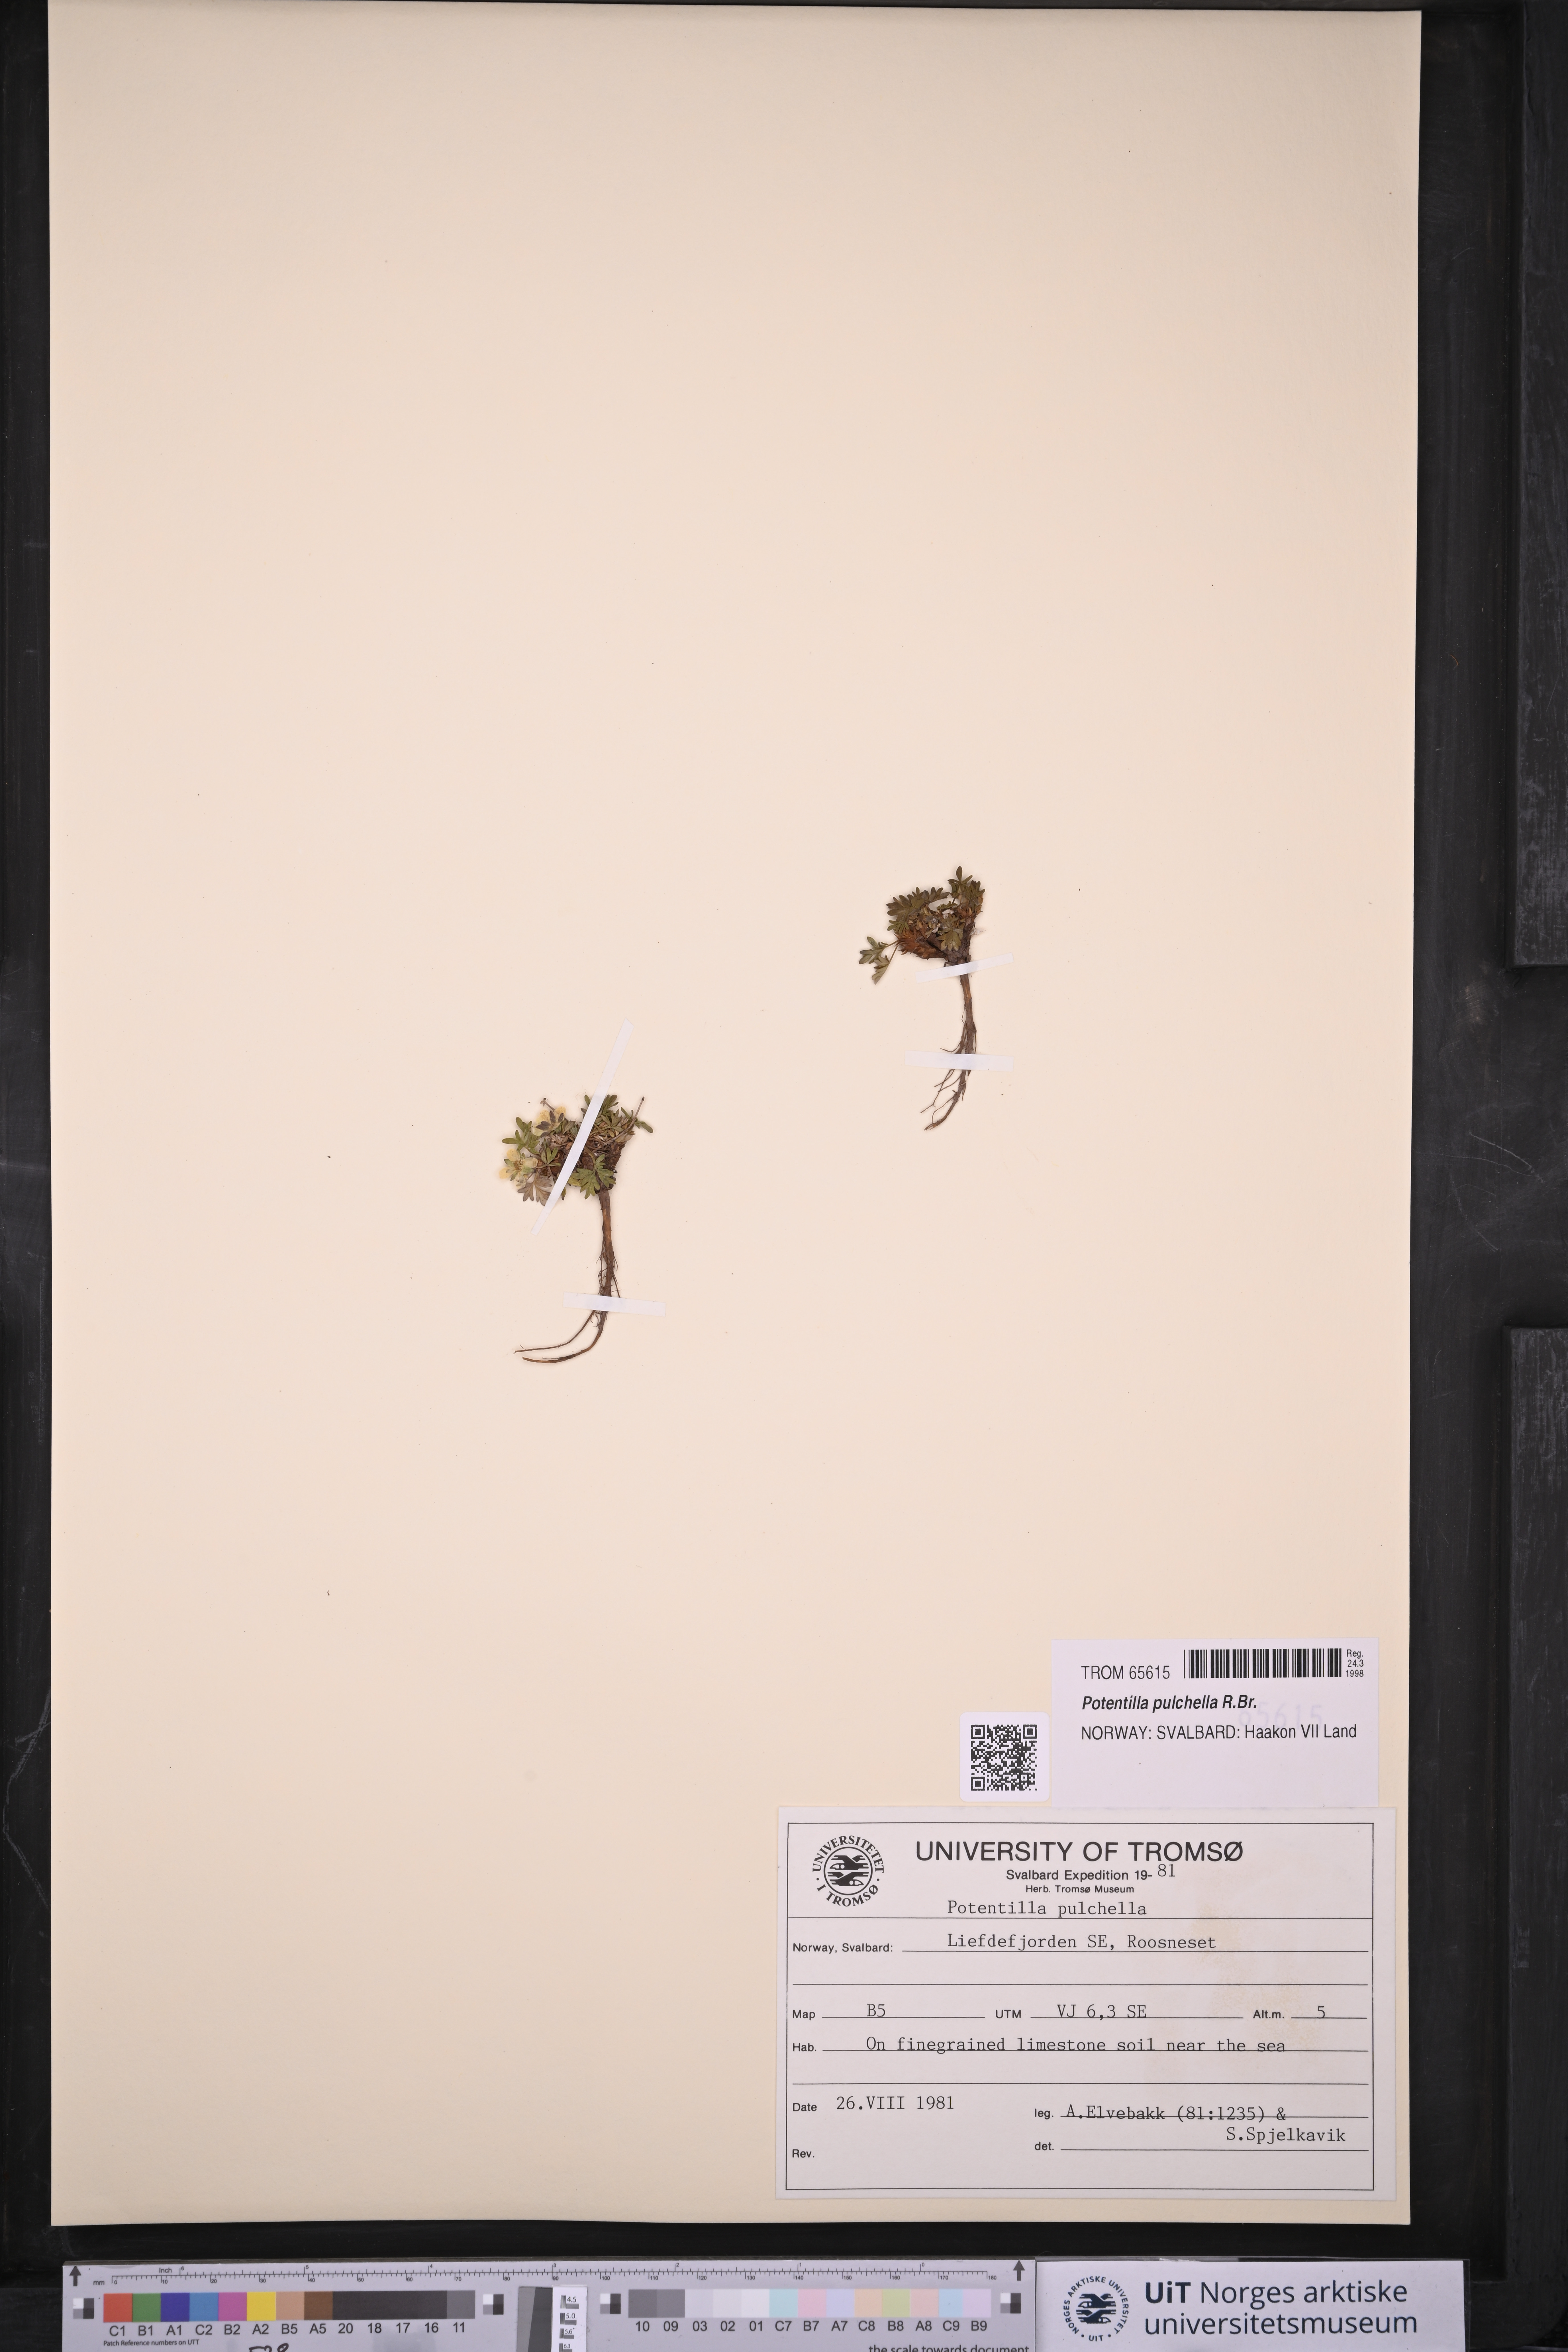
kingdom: Plantae
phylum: Tracheophyta
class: Magnoliopsida
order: Rosales
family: Rosaceae
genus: Potentilla
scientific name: Potentilla pulchella
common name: Pretty cinquefoil
